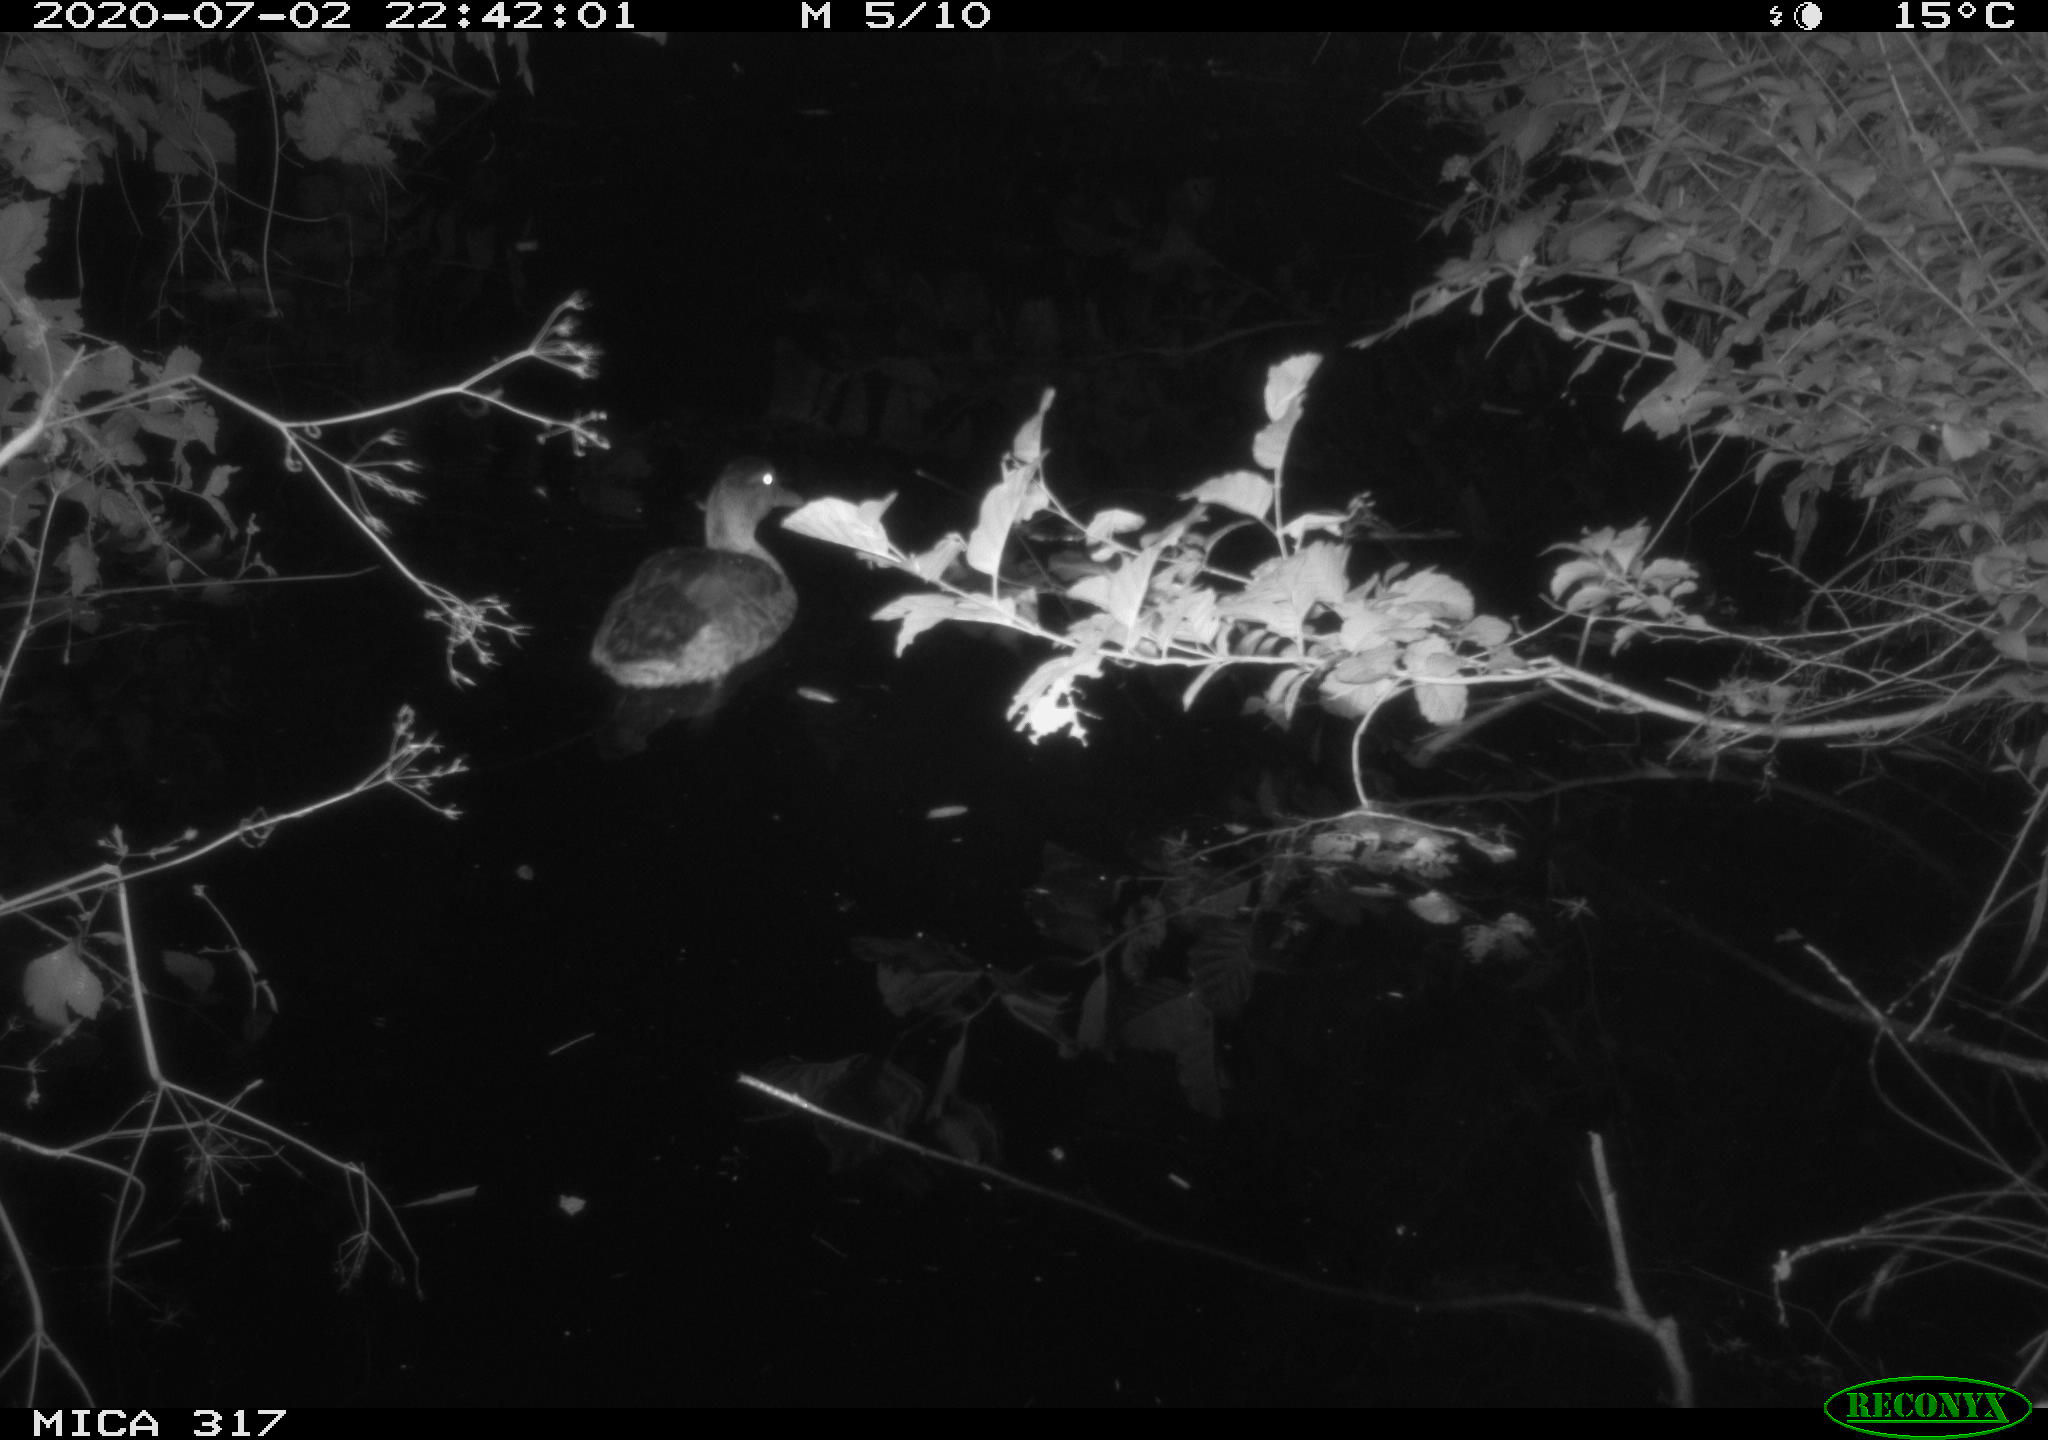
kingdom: Animalia
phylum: Chordata
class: Aves
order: Anseriformes
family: Anatidae
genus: Anas
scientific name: Anas platyrhynchos
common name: Mallard
